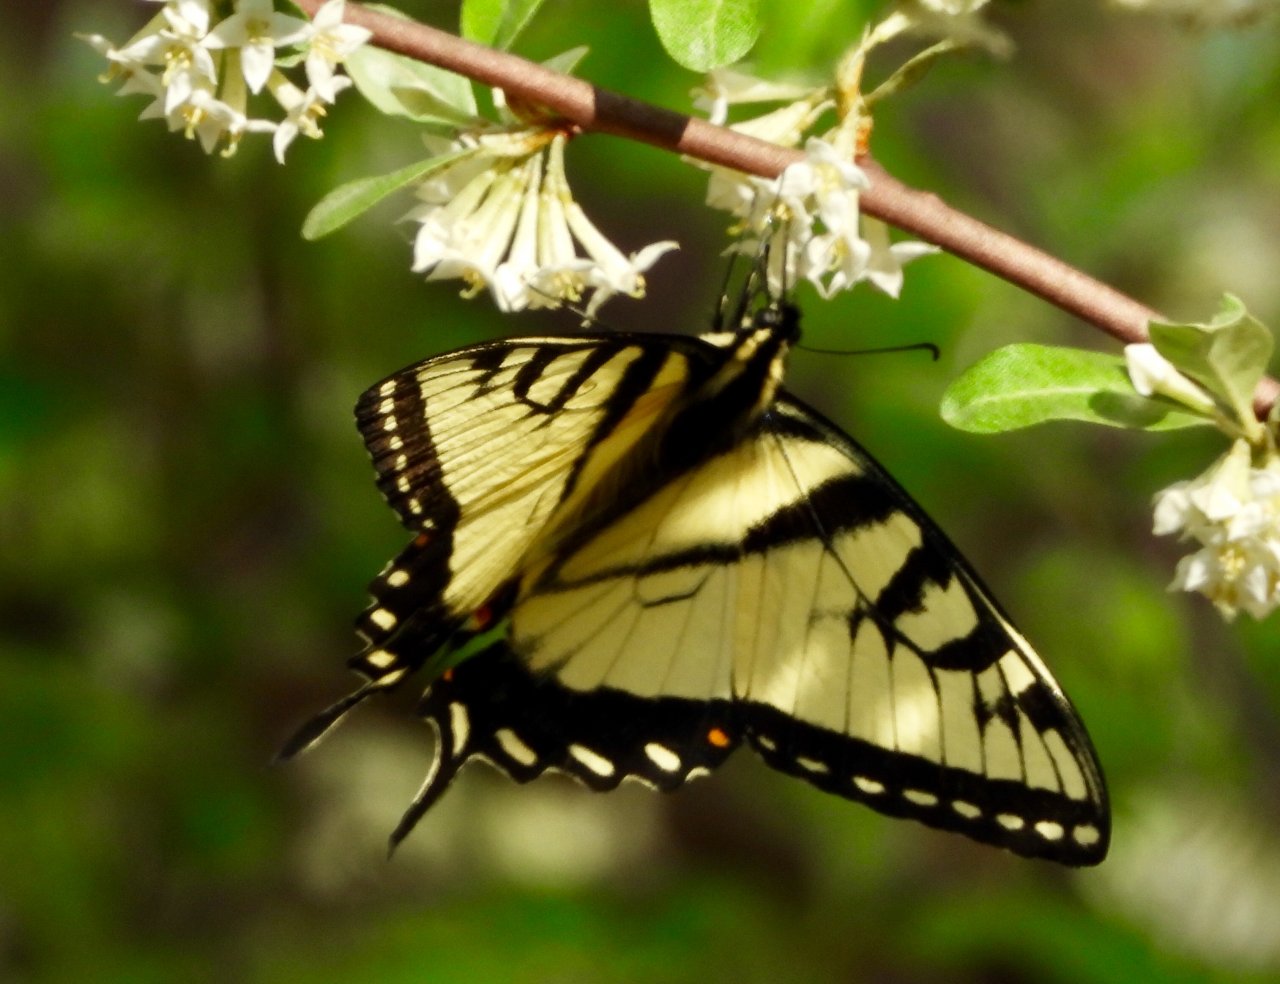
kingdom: Animalia
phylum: Arthropoda
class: Insecta
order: Lepidoptera
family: Papilionidae
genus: Pterourus
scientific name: Pterourus glaucus
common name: Eastern Tiger Swallowtail
